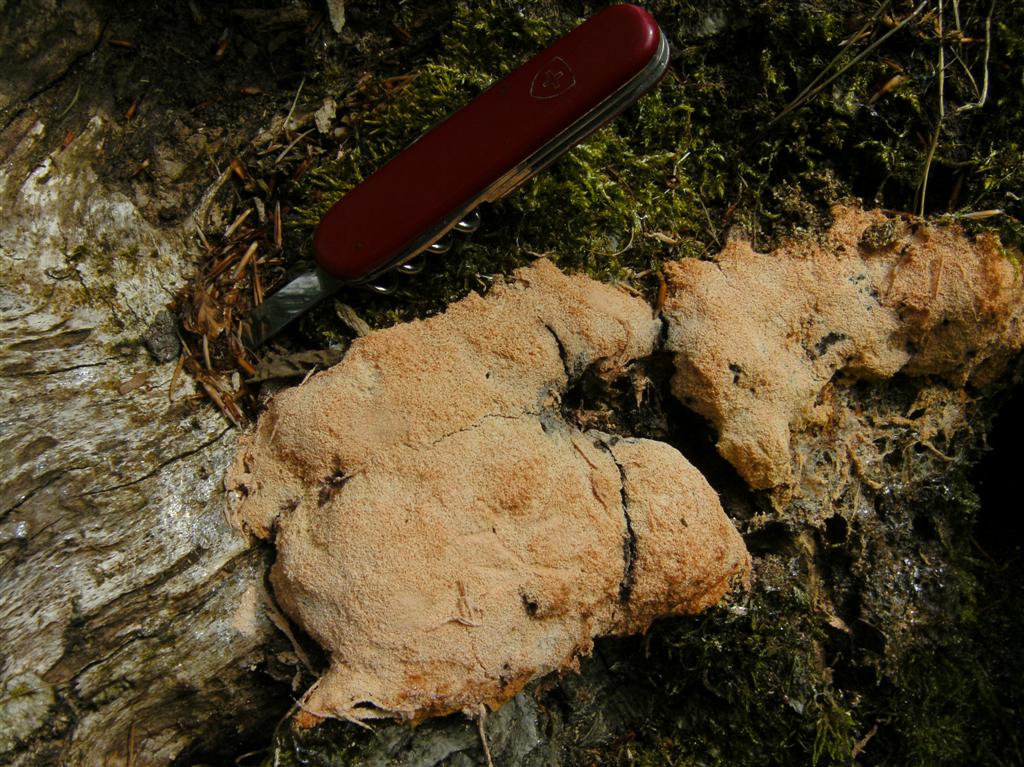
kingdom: Protozoa
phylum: Mycetozoa
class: Myxomycetes
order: Physarales
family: Physaraceae
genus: Fuligo
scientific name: Fuligo septica
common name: Dog vomit slime mold
